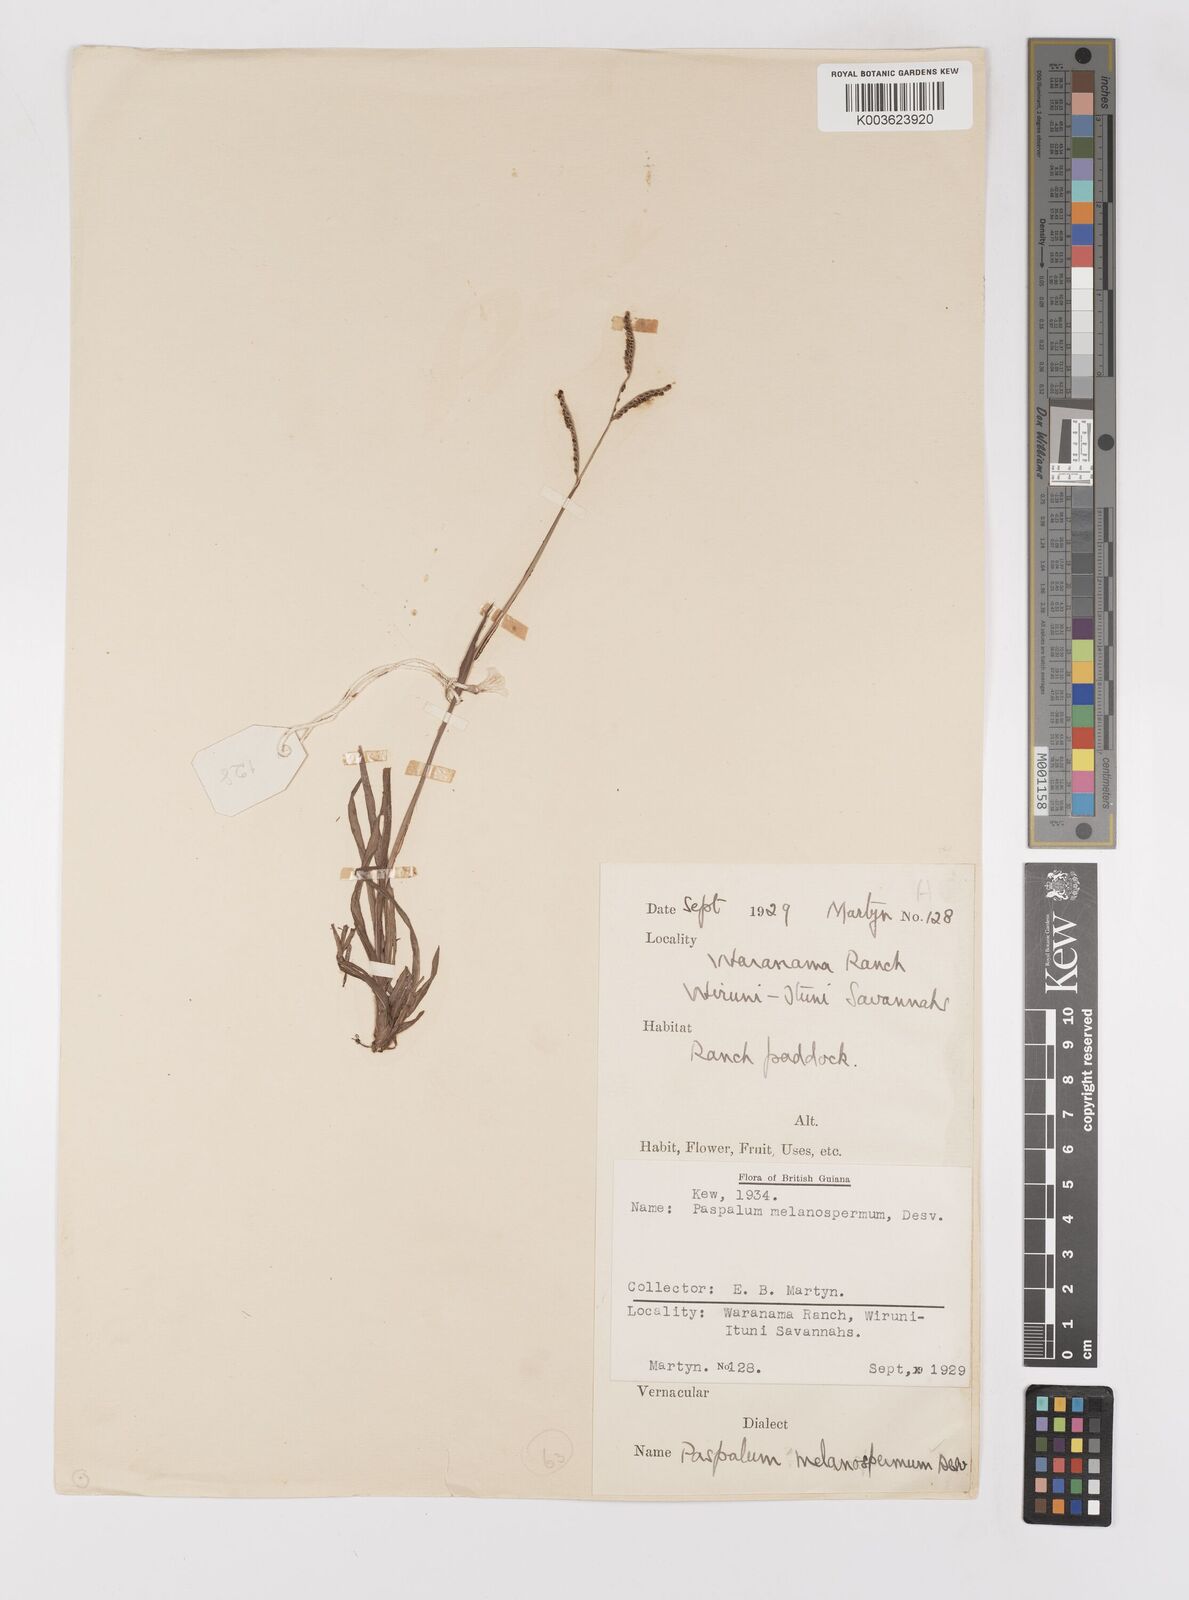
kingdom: Plantae
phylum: Tracheophyta
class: Liliopsida
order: Poales
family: Poaceae
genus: Paspalum
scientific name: Paspalum melanospermum
